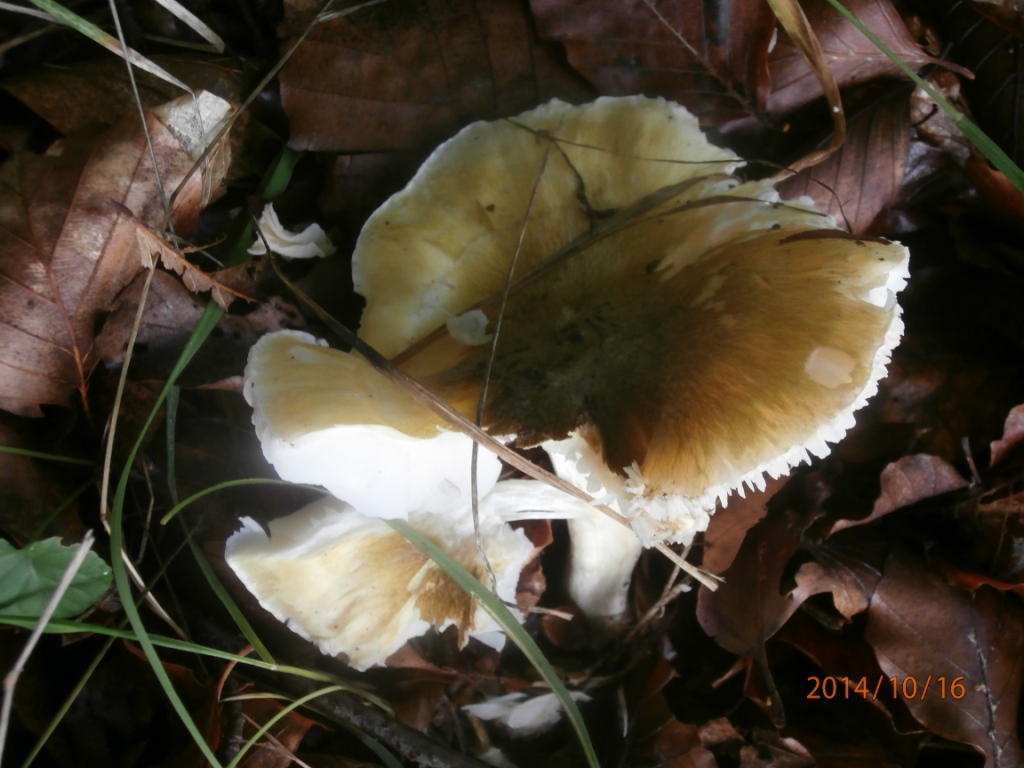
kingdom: Fungi
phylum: Basidiomycota
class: Agaricomycetes
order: Agaricales
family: Tricholomataceae
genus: Tricholoma
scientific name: Tricholoma sejunctum
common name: grøngul ridderhat
